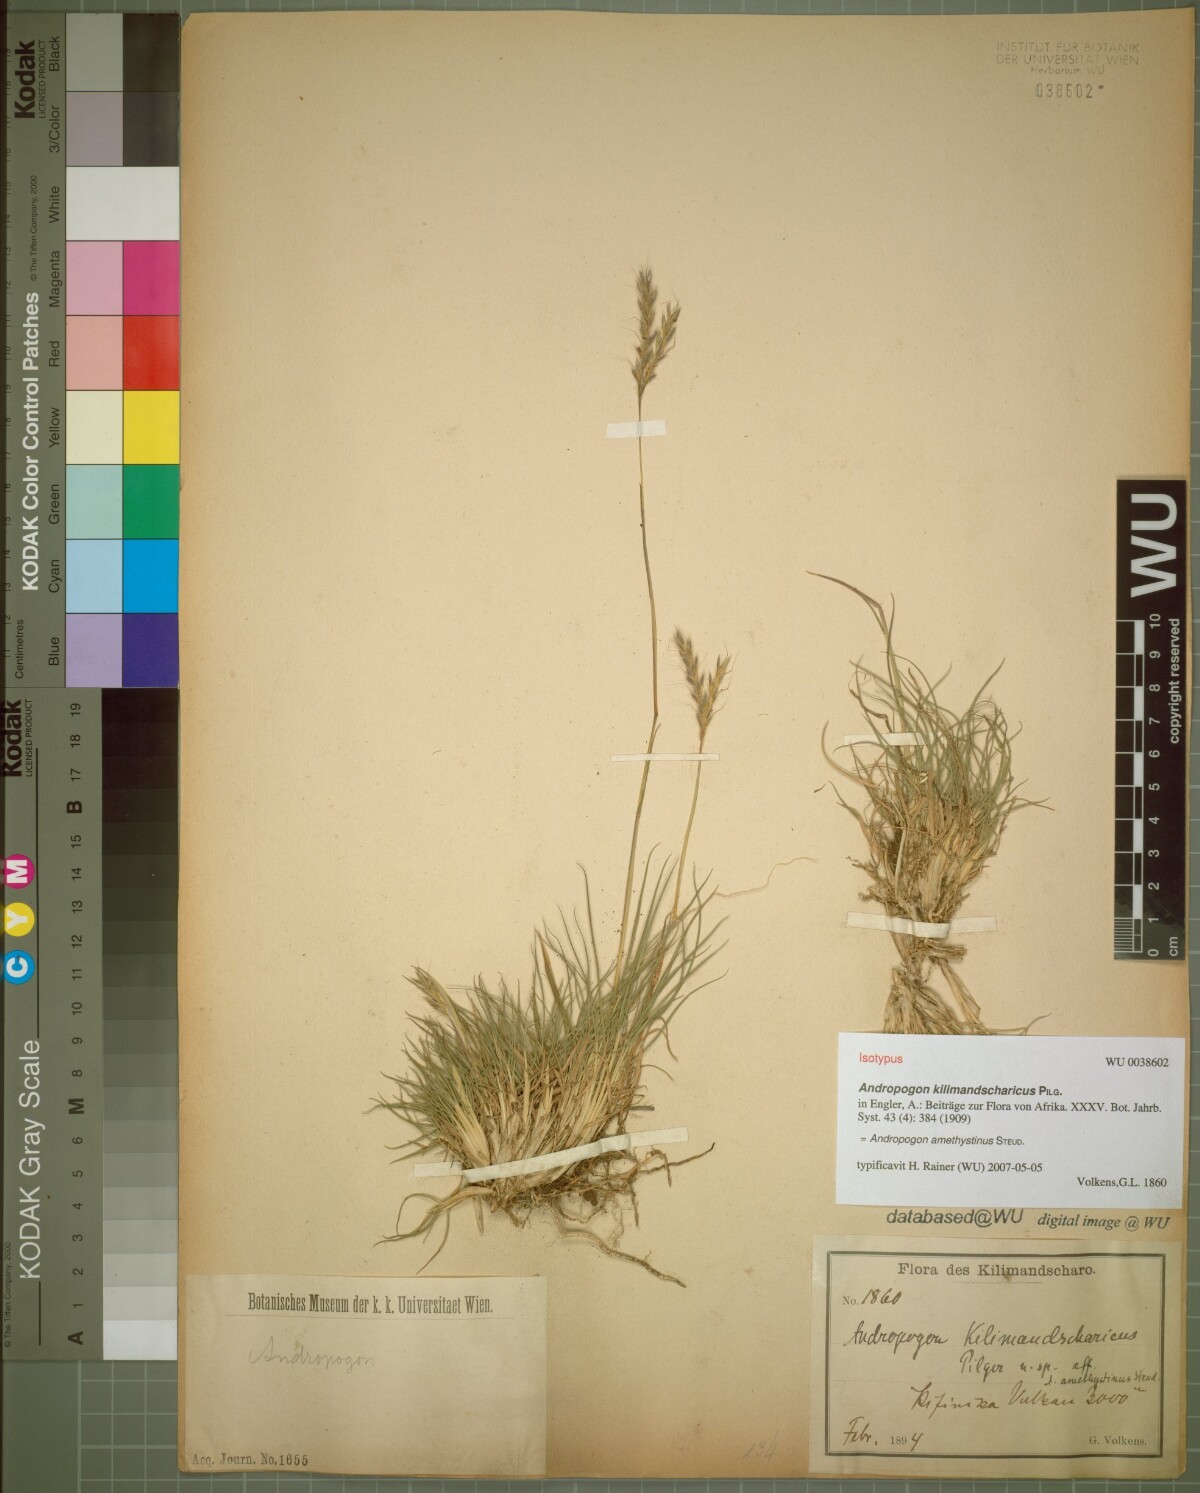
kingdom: Plantae
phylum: Tracheophyta
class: Liliopsida
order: Poales
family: Poaceae
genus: Andropogon
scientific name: Andropogon amethystinus
